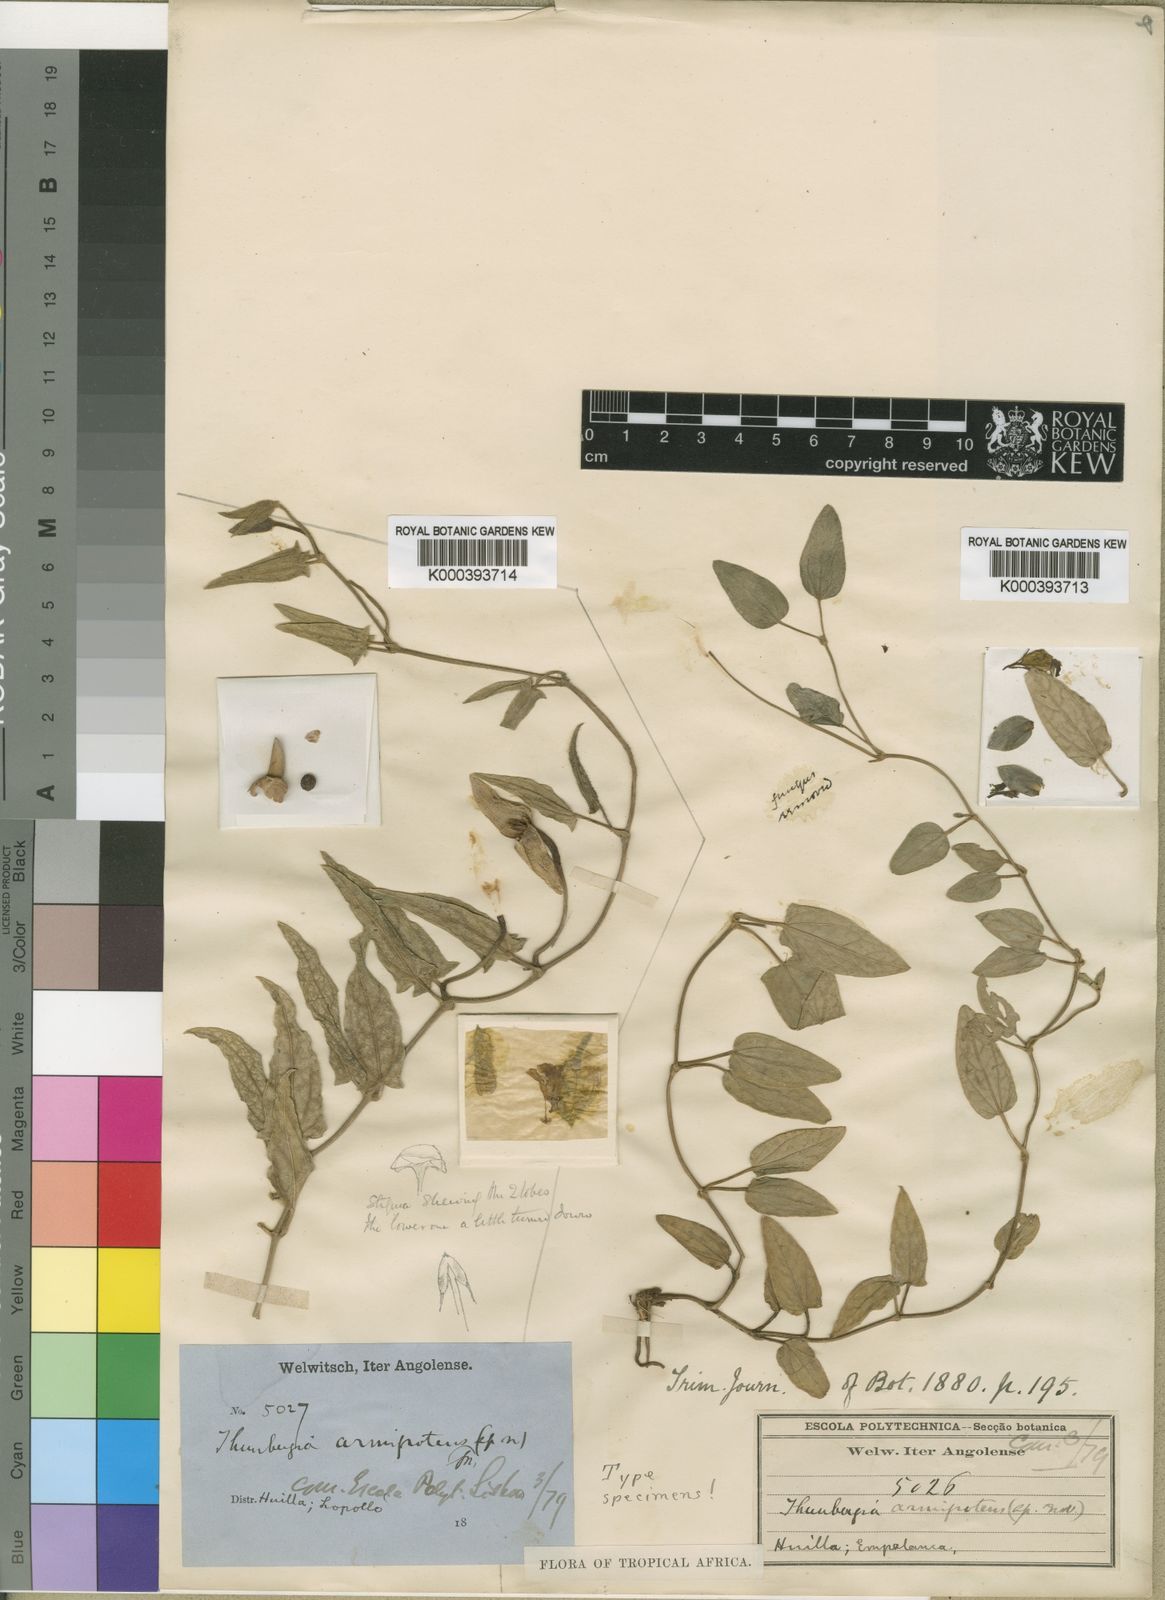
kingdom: Plantae
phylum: Tracheophyta
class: Magnoliopsida
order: Lamiales
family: Acanthaceae
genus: Thunbergia
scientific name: Thunbergia armipotens
